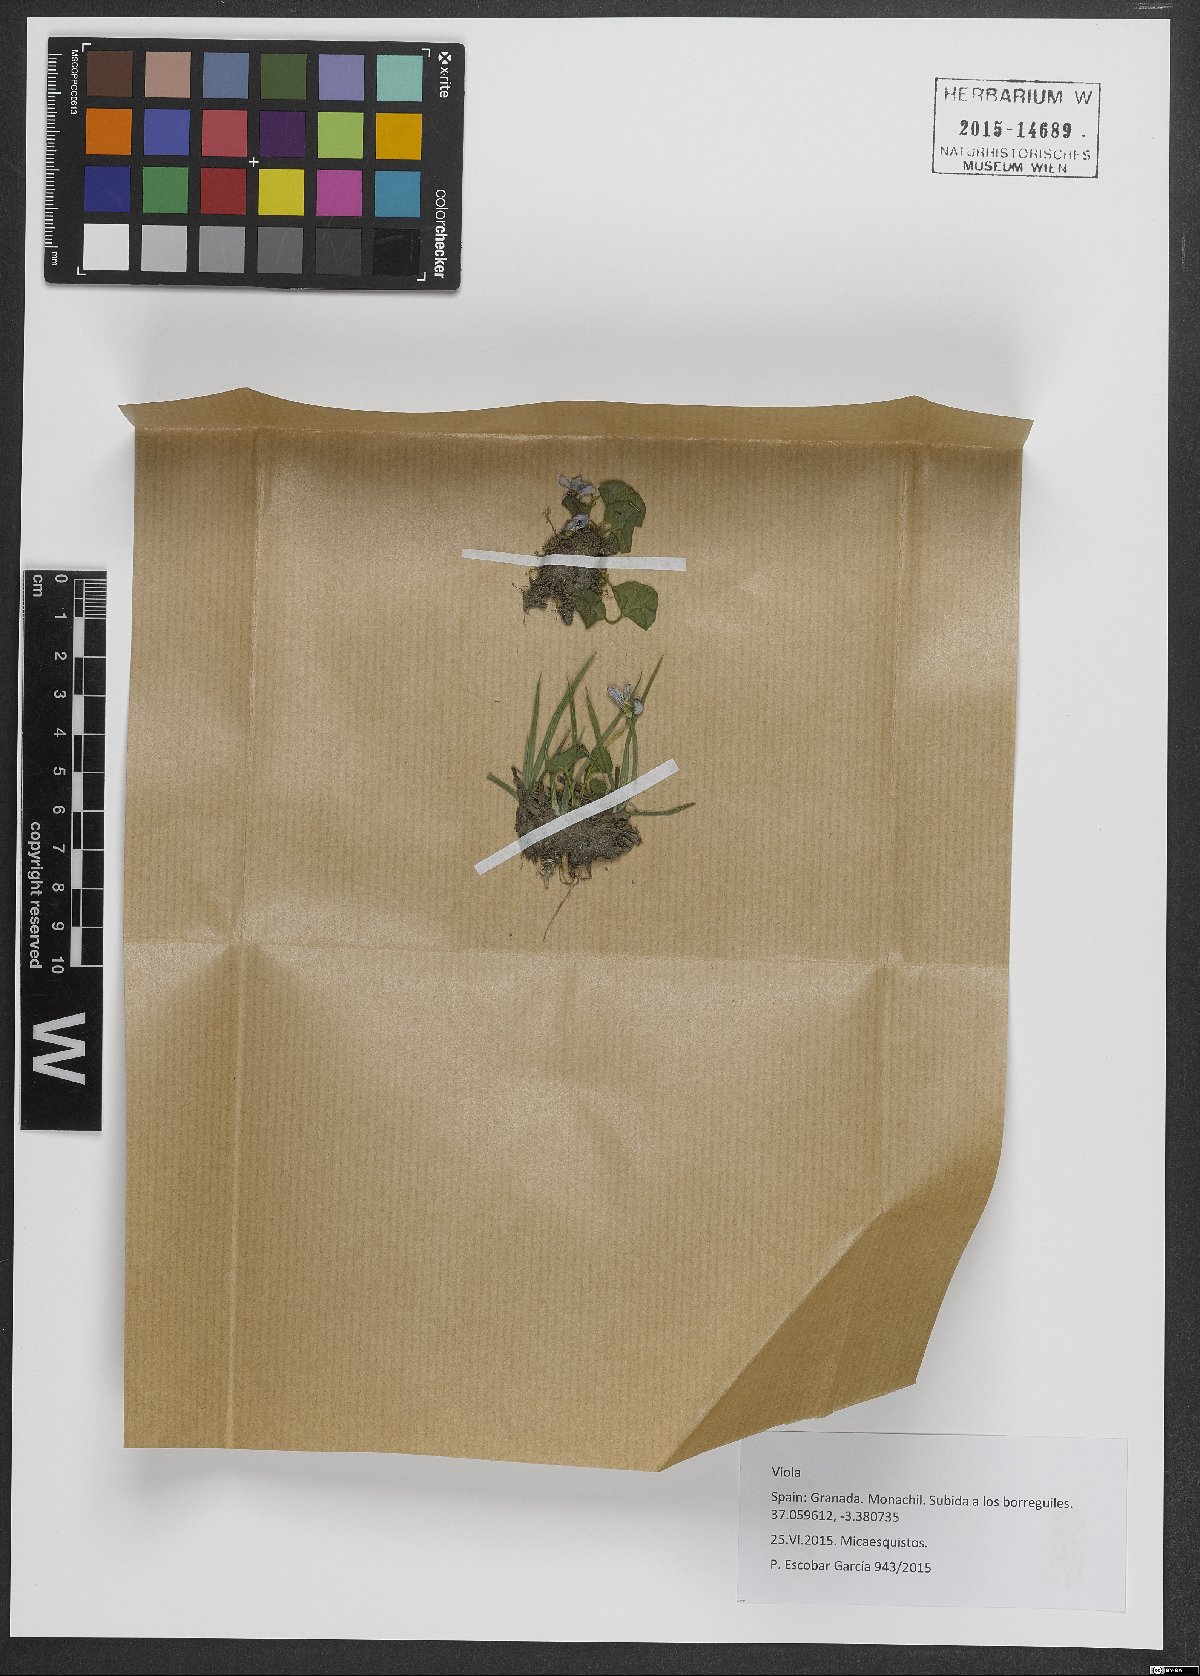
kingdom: Plantae
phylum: Tracheophyta
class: Magnoliopsida
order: Malpighiales
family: Violaceae
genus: Viola
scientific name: Viola
